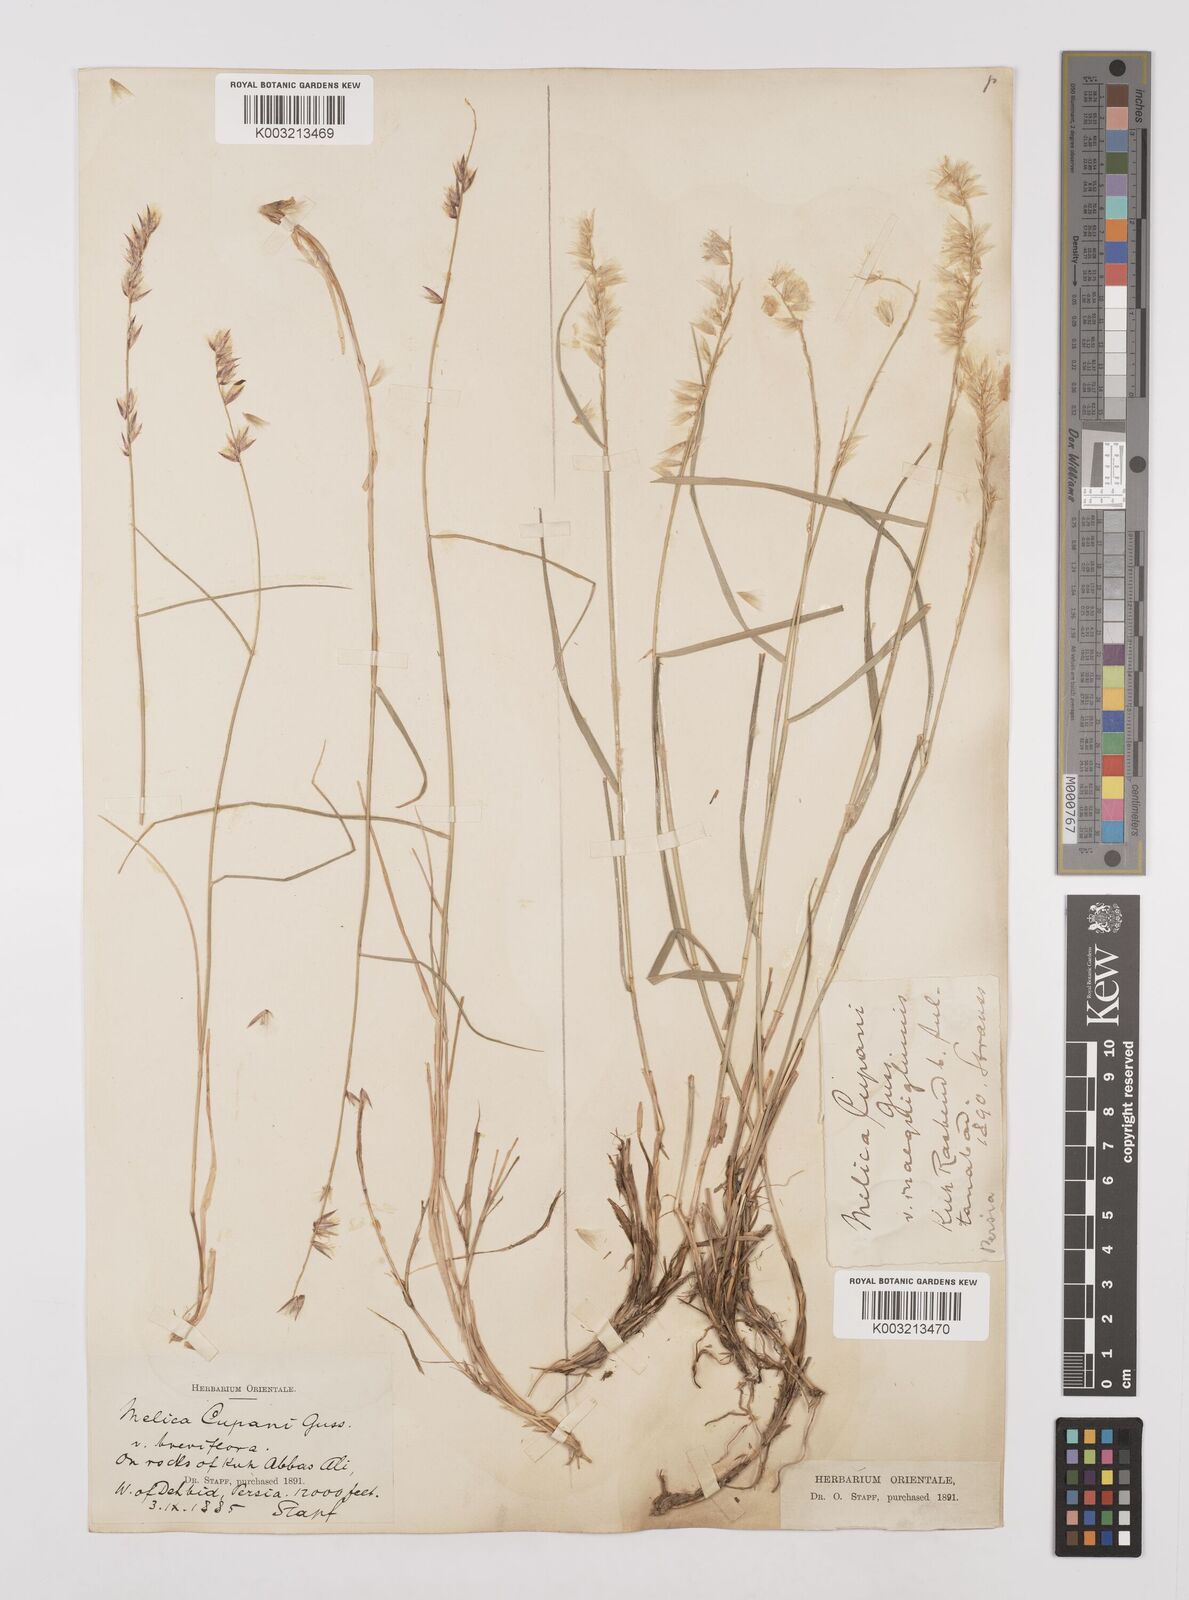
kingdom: Plantae
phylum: Tracheophyta
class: Liliopsida
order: Poales
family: Poaceae
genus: Melica
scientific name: Melica persica
